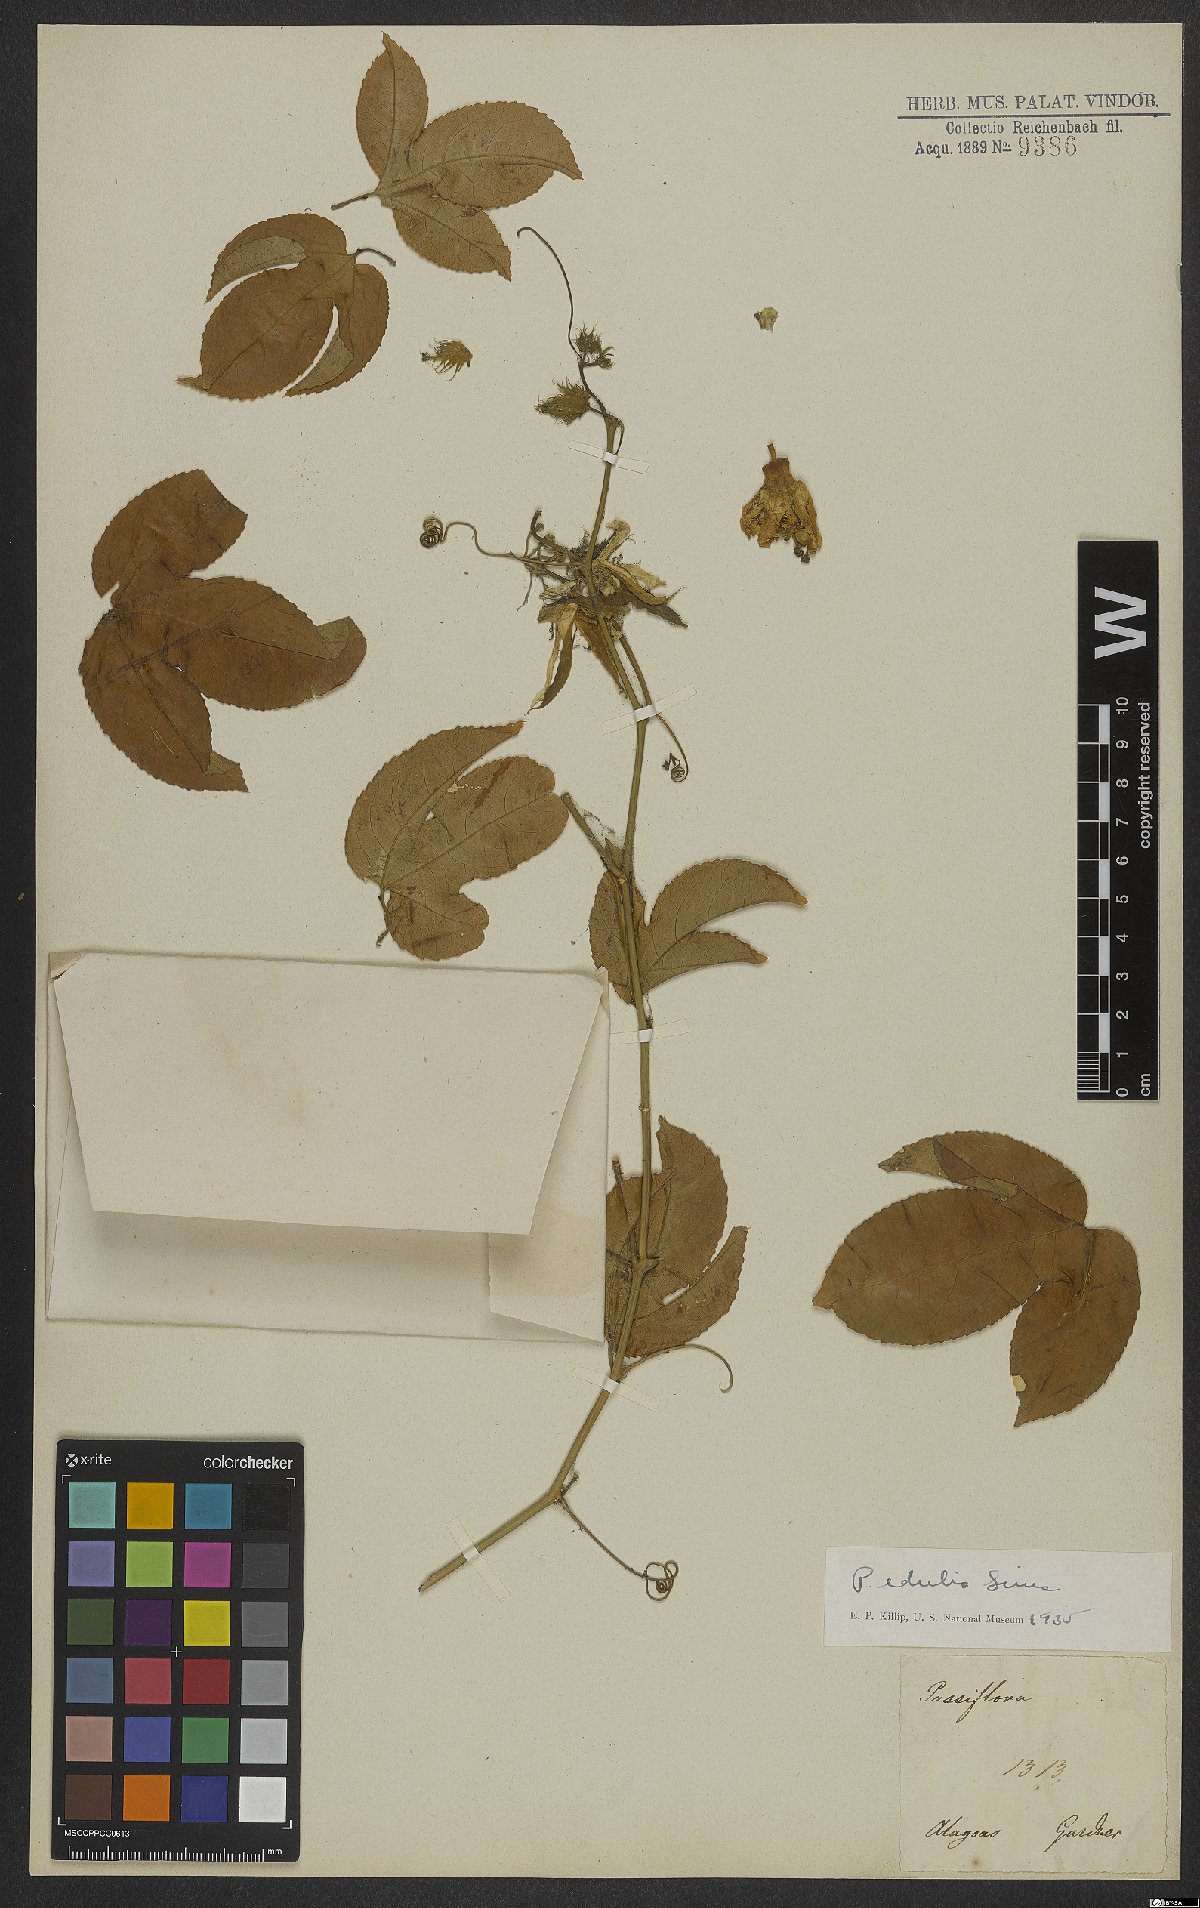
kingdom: Plantae
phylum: Tracheophyta
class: Magnoliopsida
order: Malpighiales
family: Passifloraceae
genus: Passiflora
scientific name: Passiflora edulis
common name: Purple granadilla
